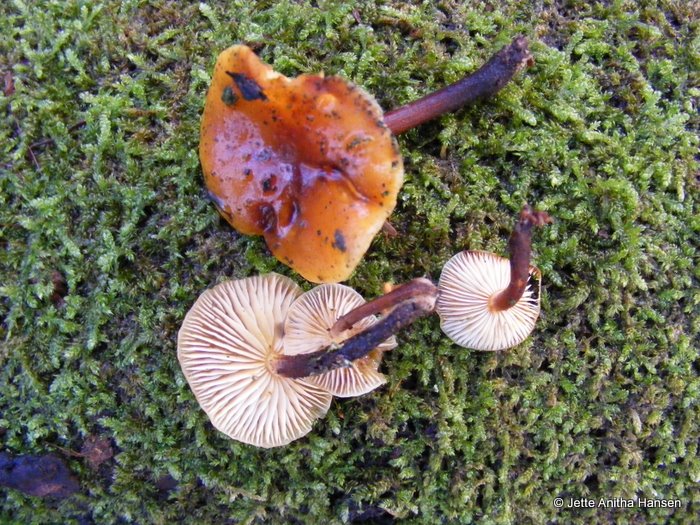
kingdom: Fungi
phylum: Basidiomycota
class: Agaricomycetes
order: Agaricales
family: Physalacriaceae
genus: Flammulina
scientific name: Flammulina velutipes
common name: gul fløjlsfod
